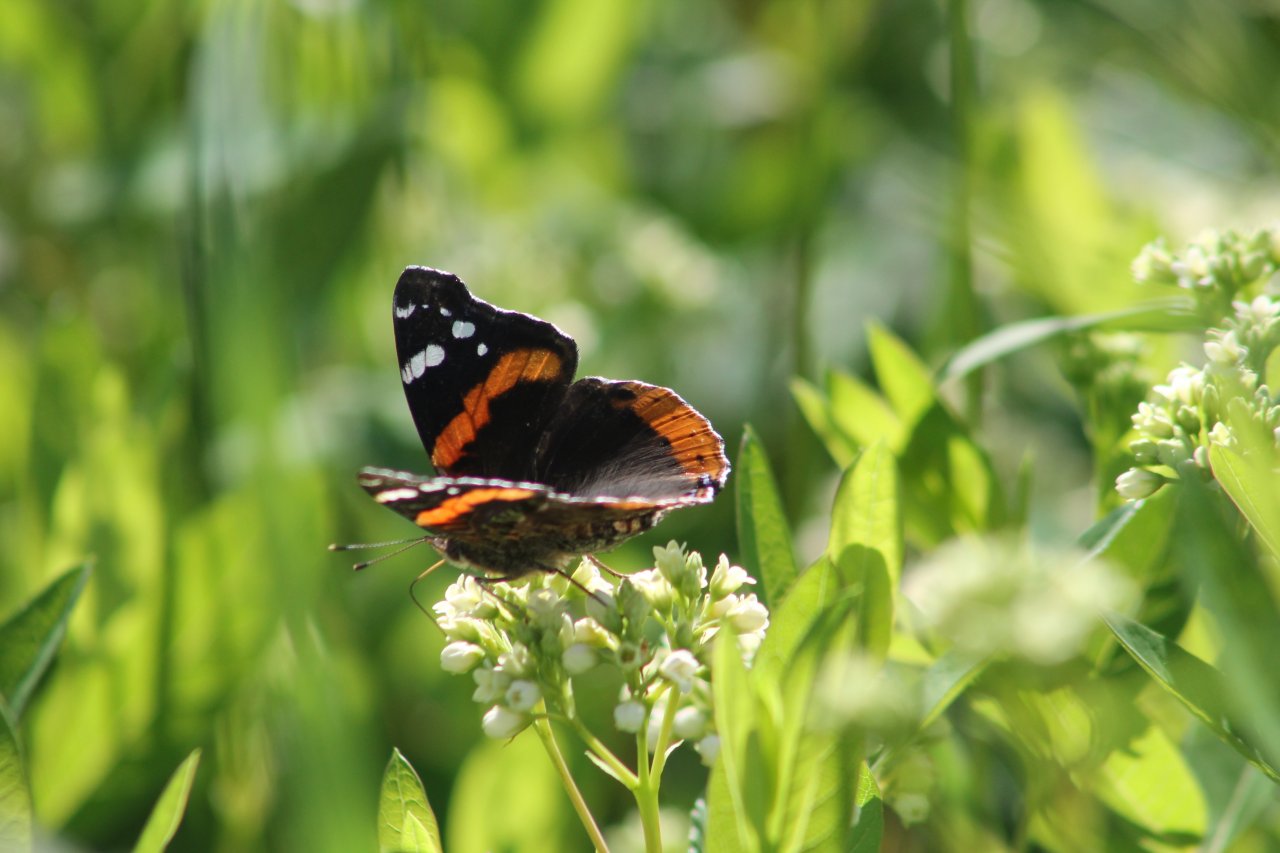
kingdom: Animalia
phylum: Arthropoda
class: Insecta
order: Lepidoptera
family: Nymphalidae
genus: Vanessa
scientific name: Vanessa atalanta
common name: Red Admiral
